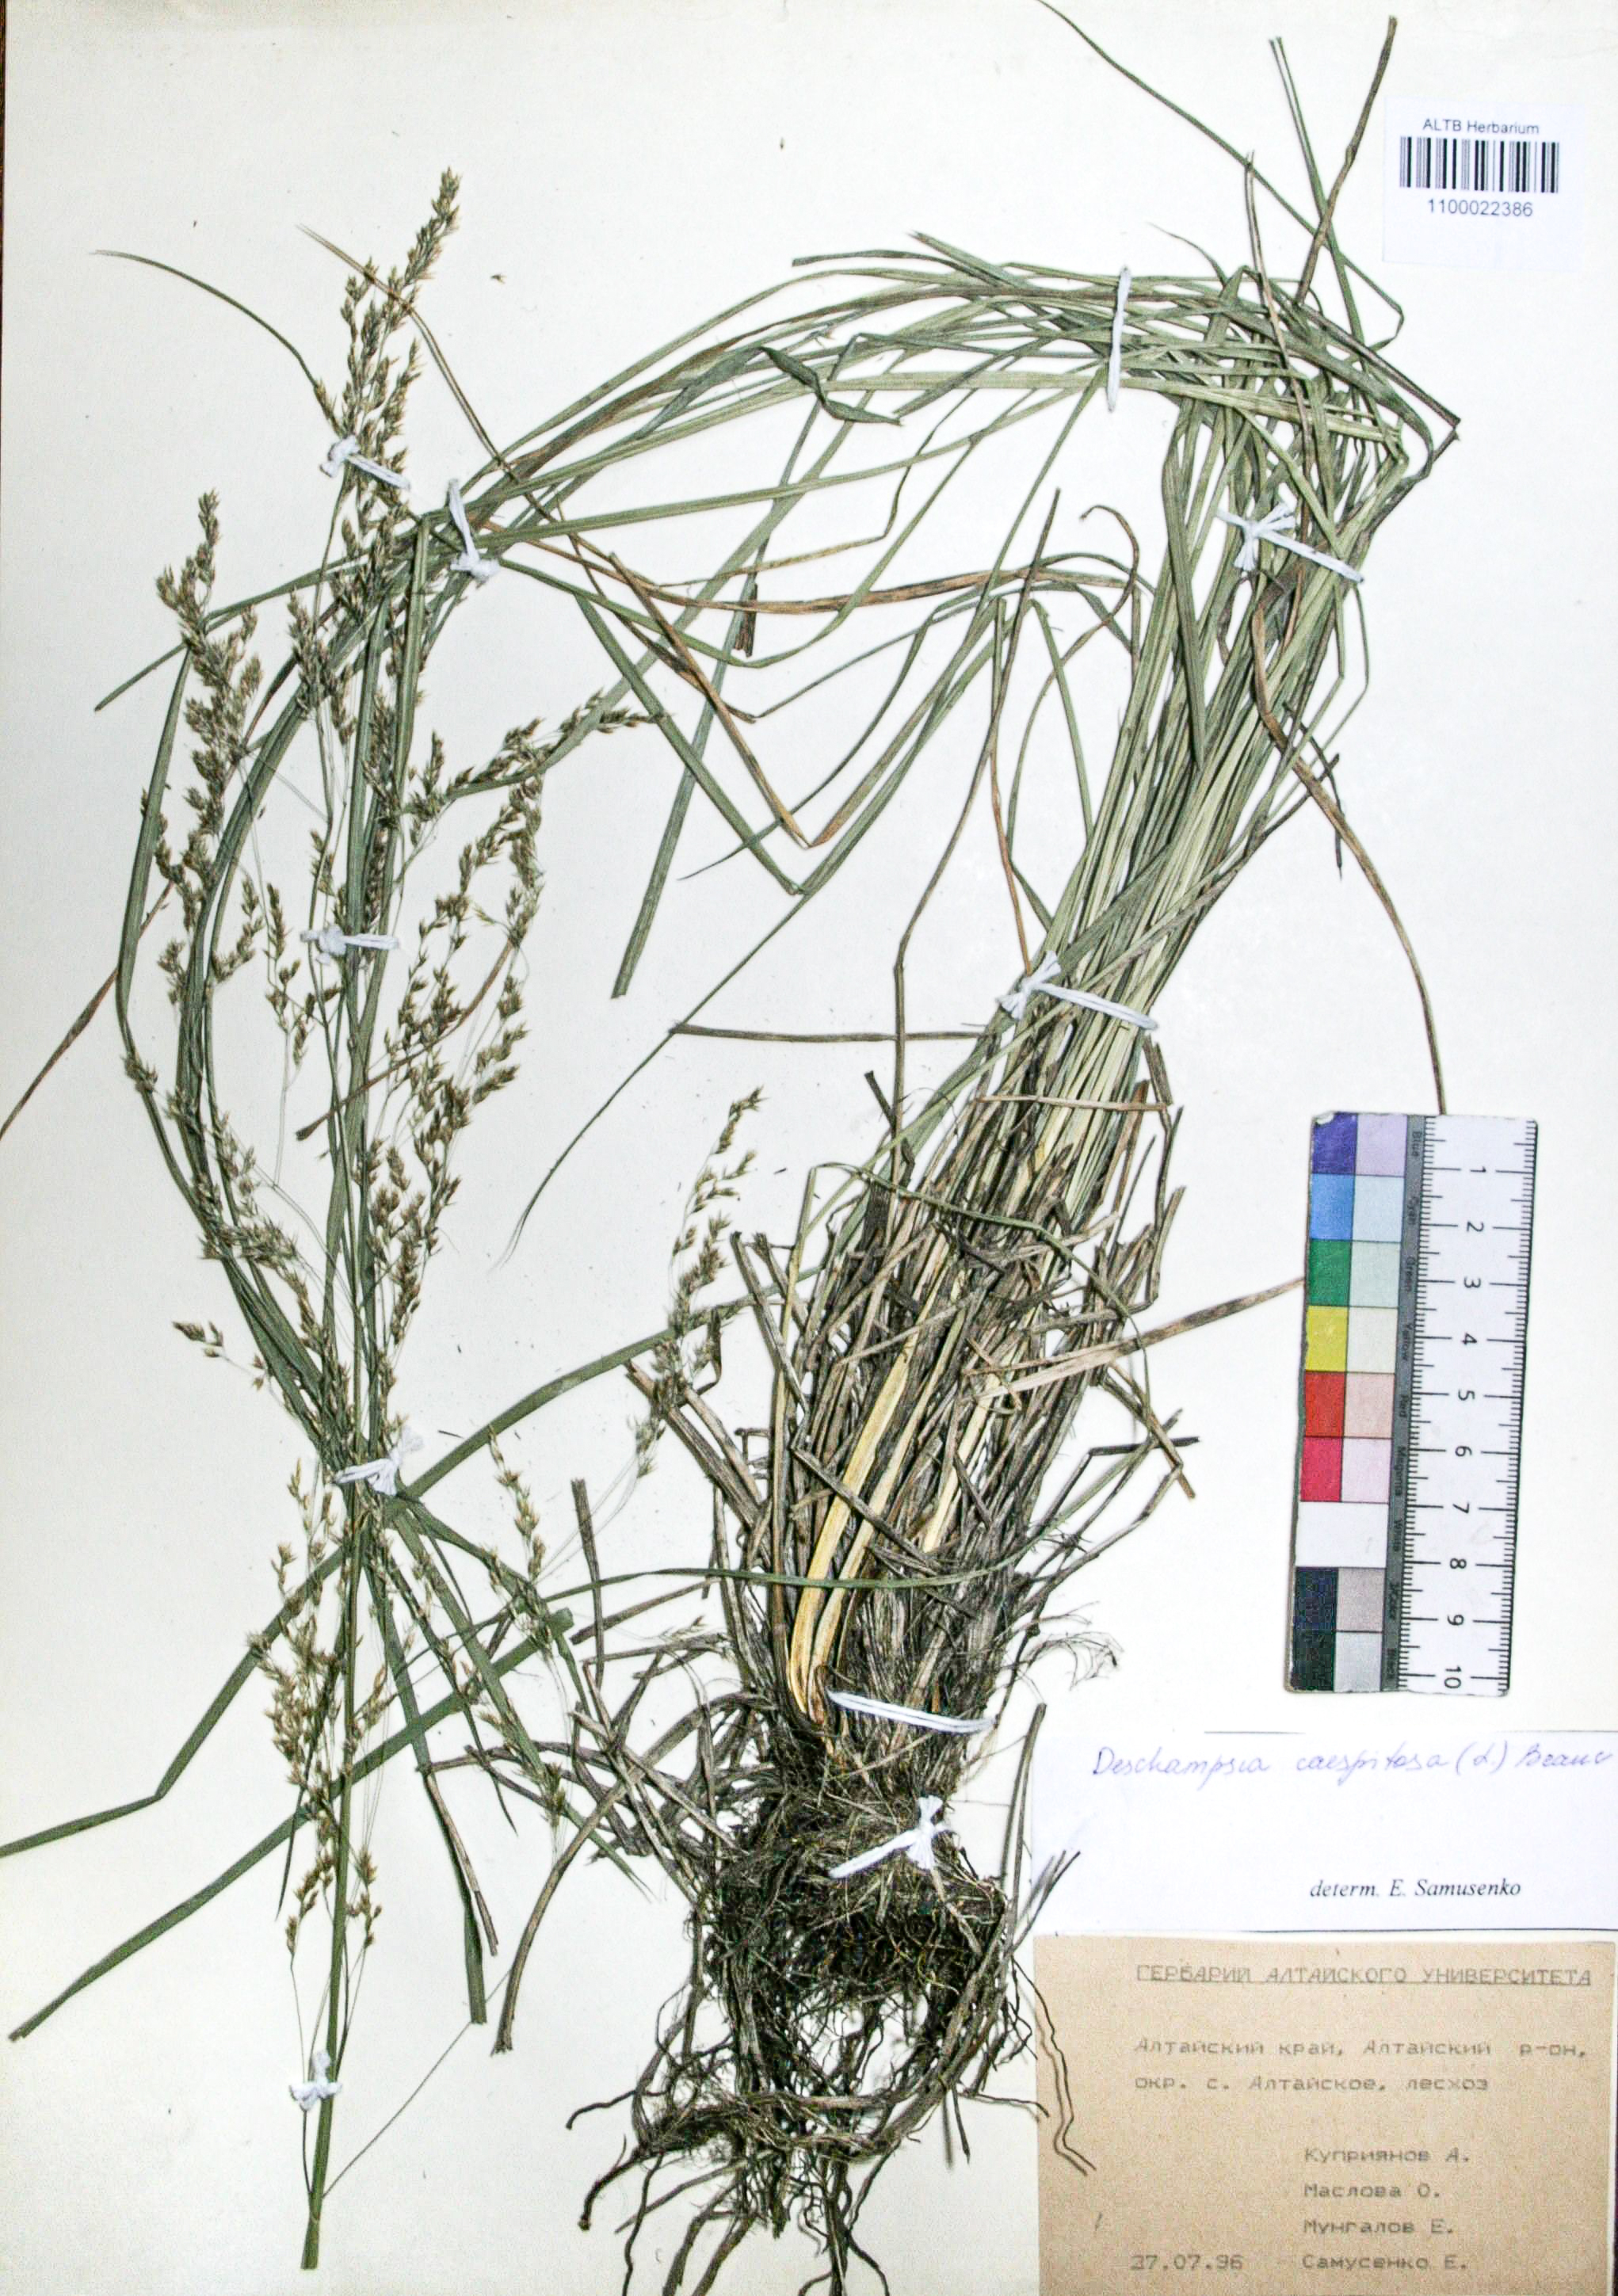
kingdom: Plantae
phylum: Tracheophyta
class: Liliopsida
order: Poales
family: Poaceae
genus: Deschampsia
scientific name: Deschampsia cespitosa
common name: Tufted hair-grass
